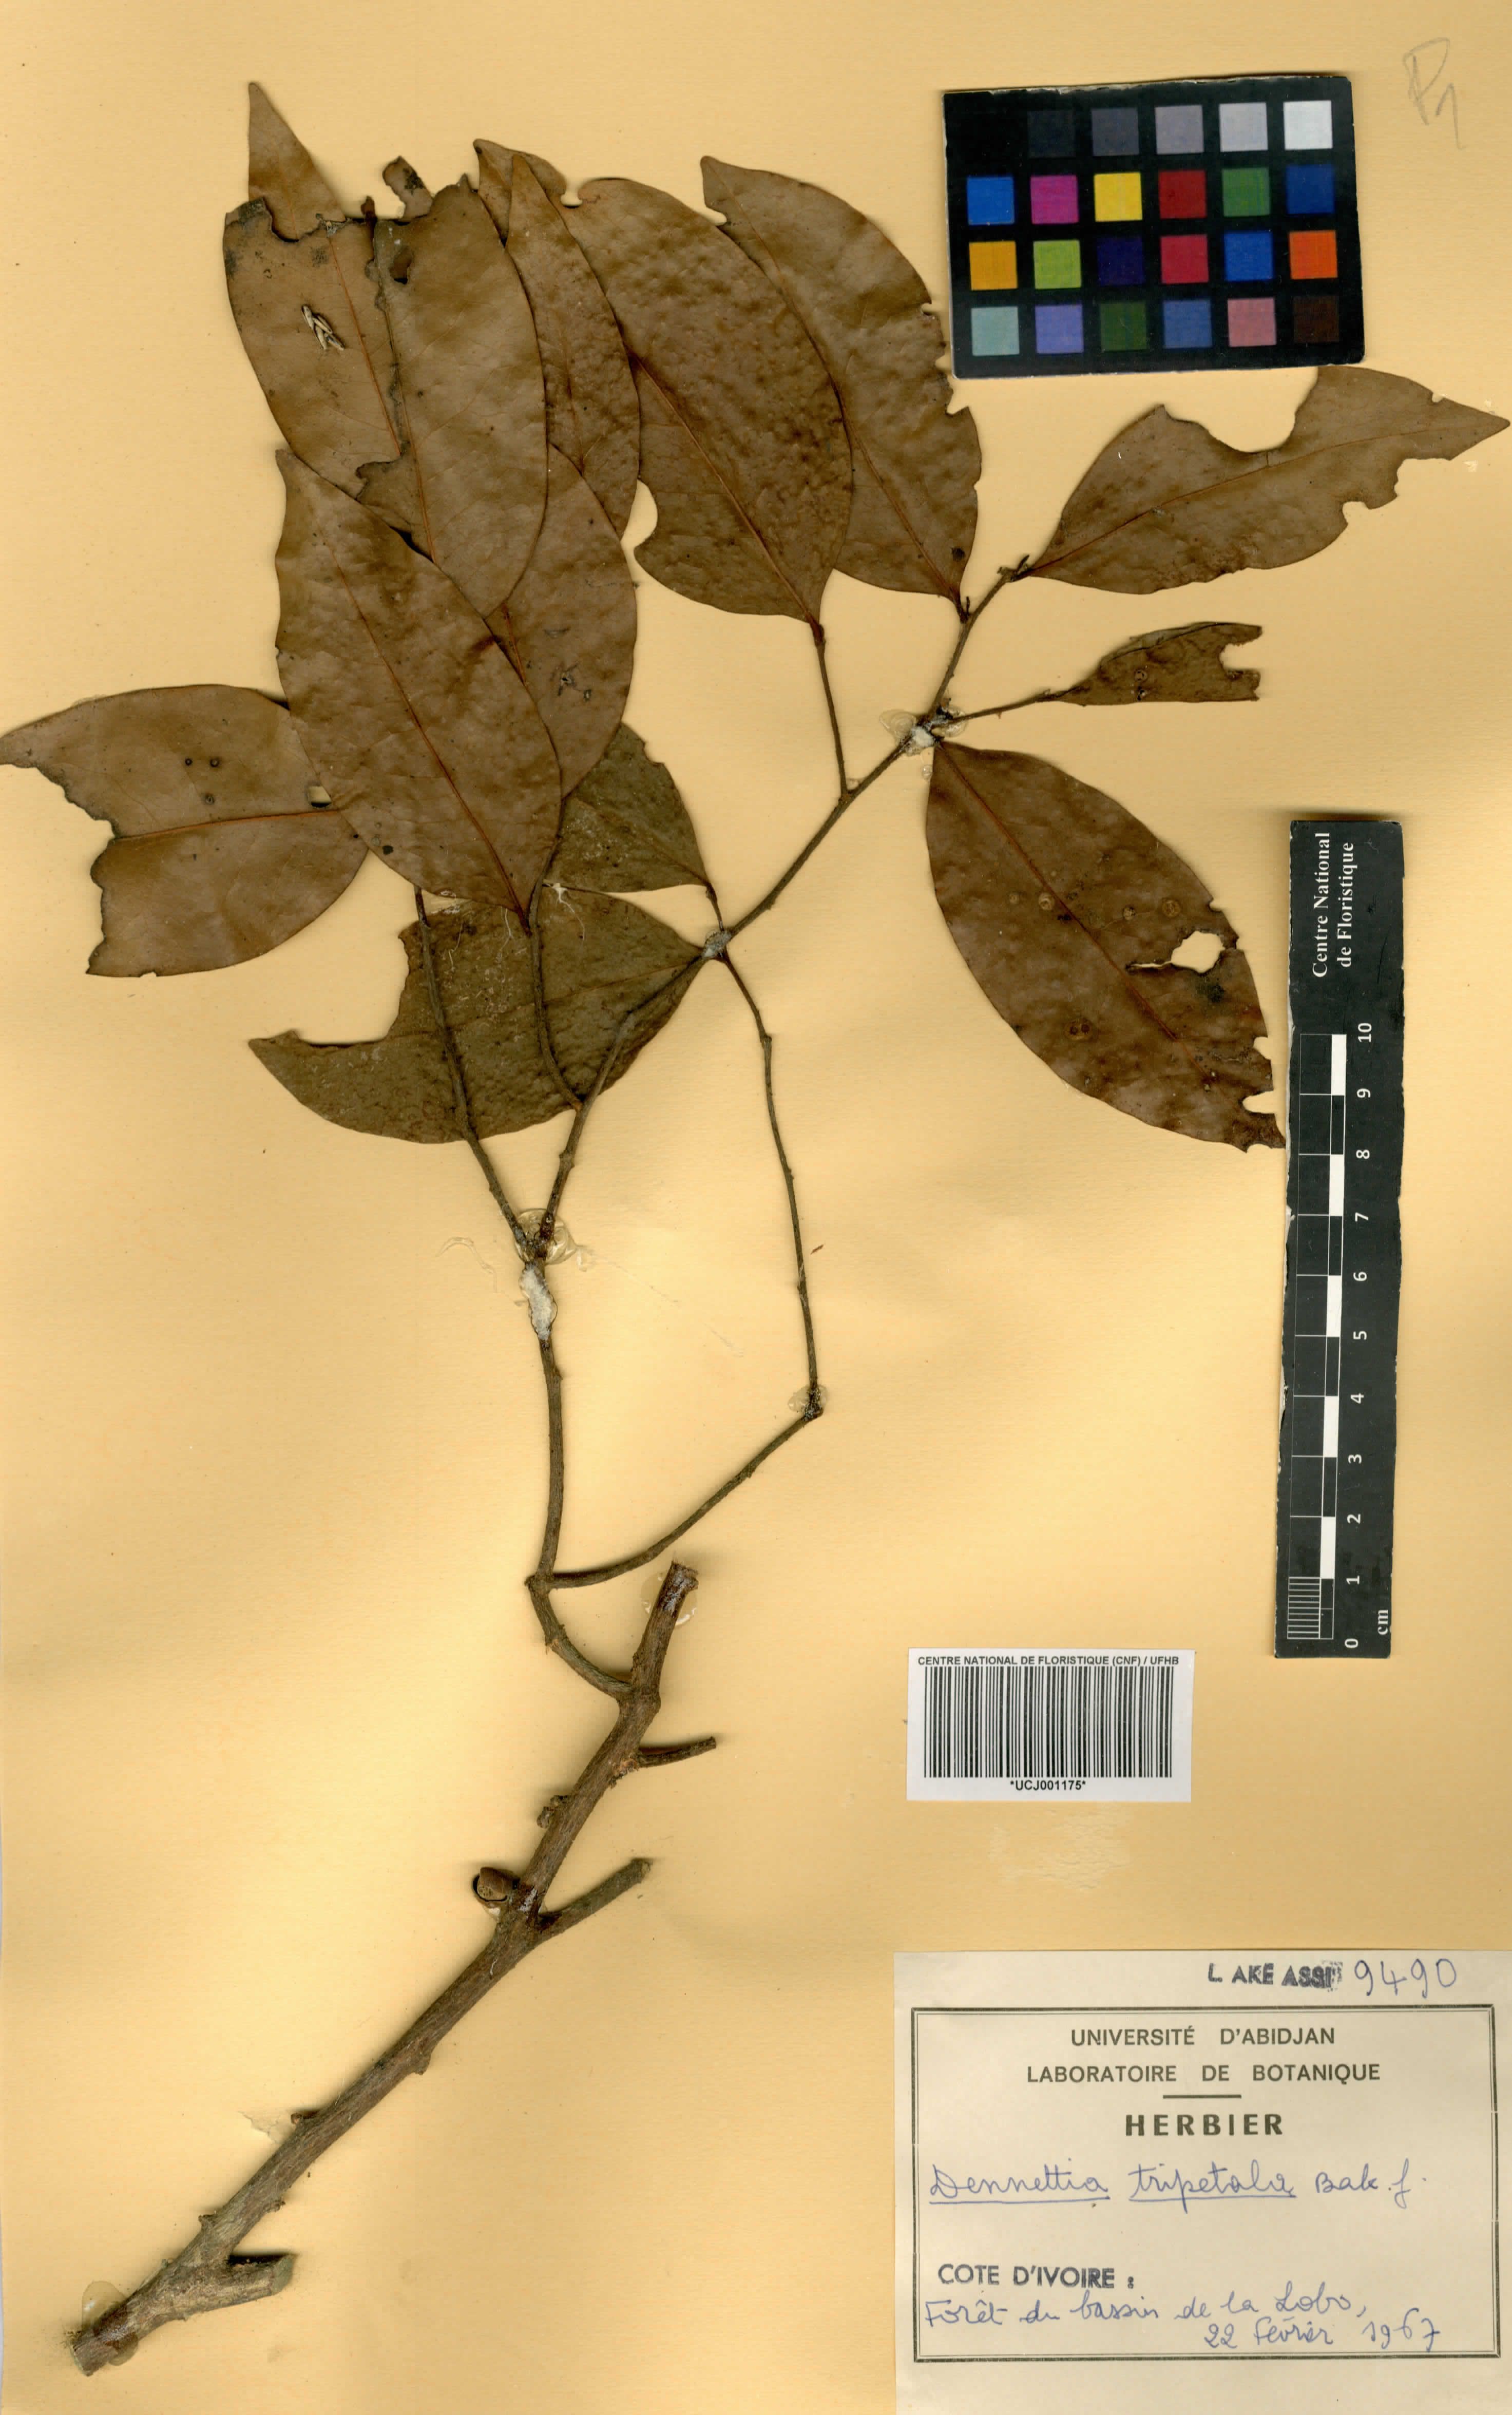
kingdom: Plantae
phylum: Tracheophyta
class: Magnoliopsida
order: Magnoliales
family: Annonaceae
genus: Uvariopsis
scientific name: Uvariopsis tripetala
